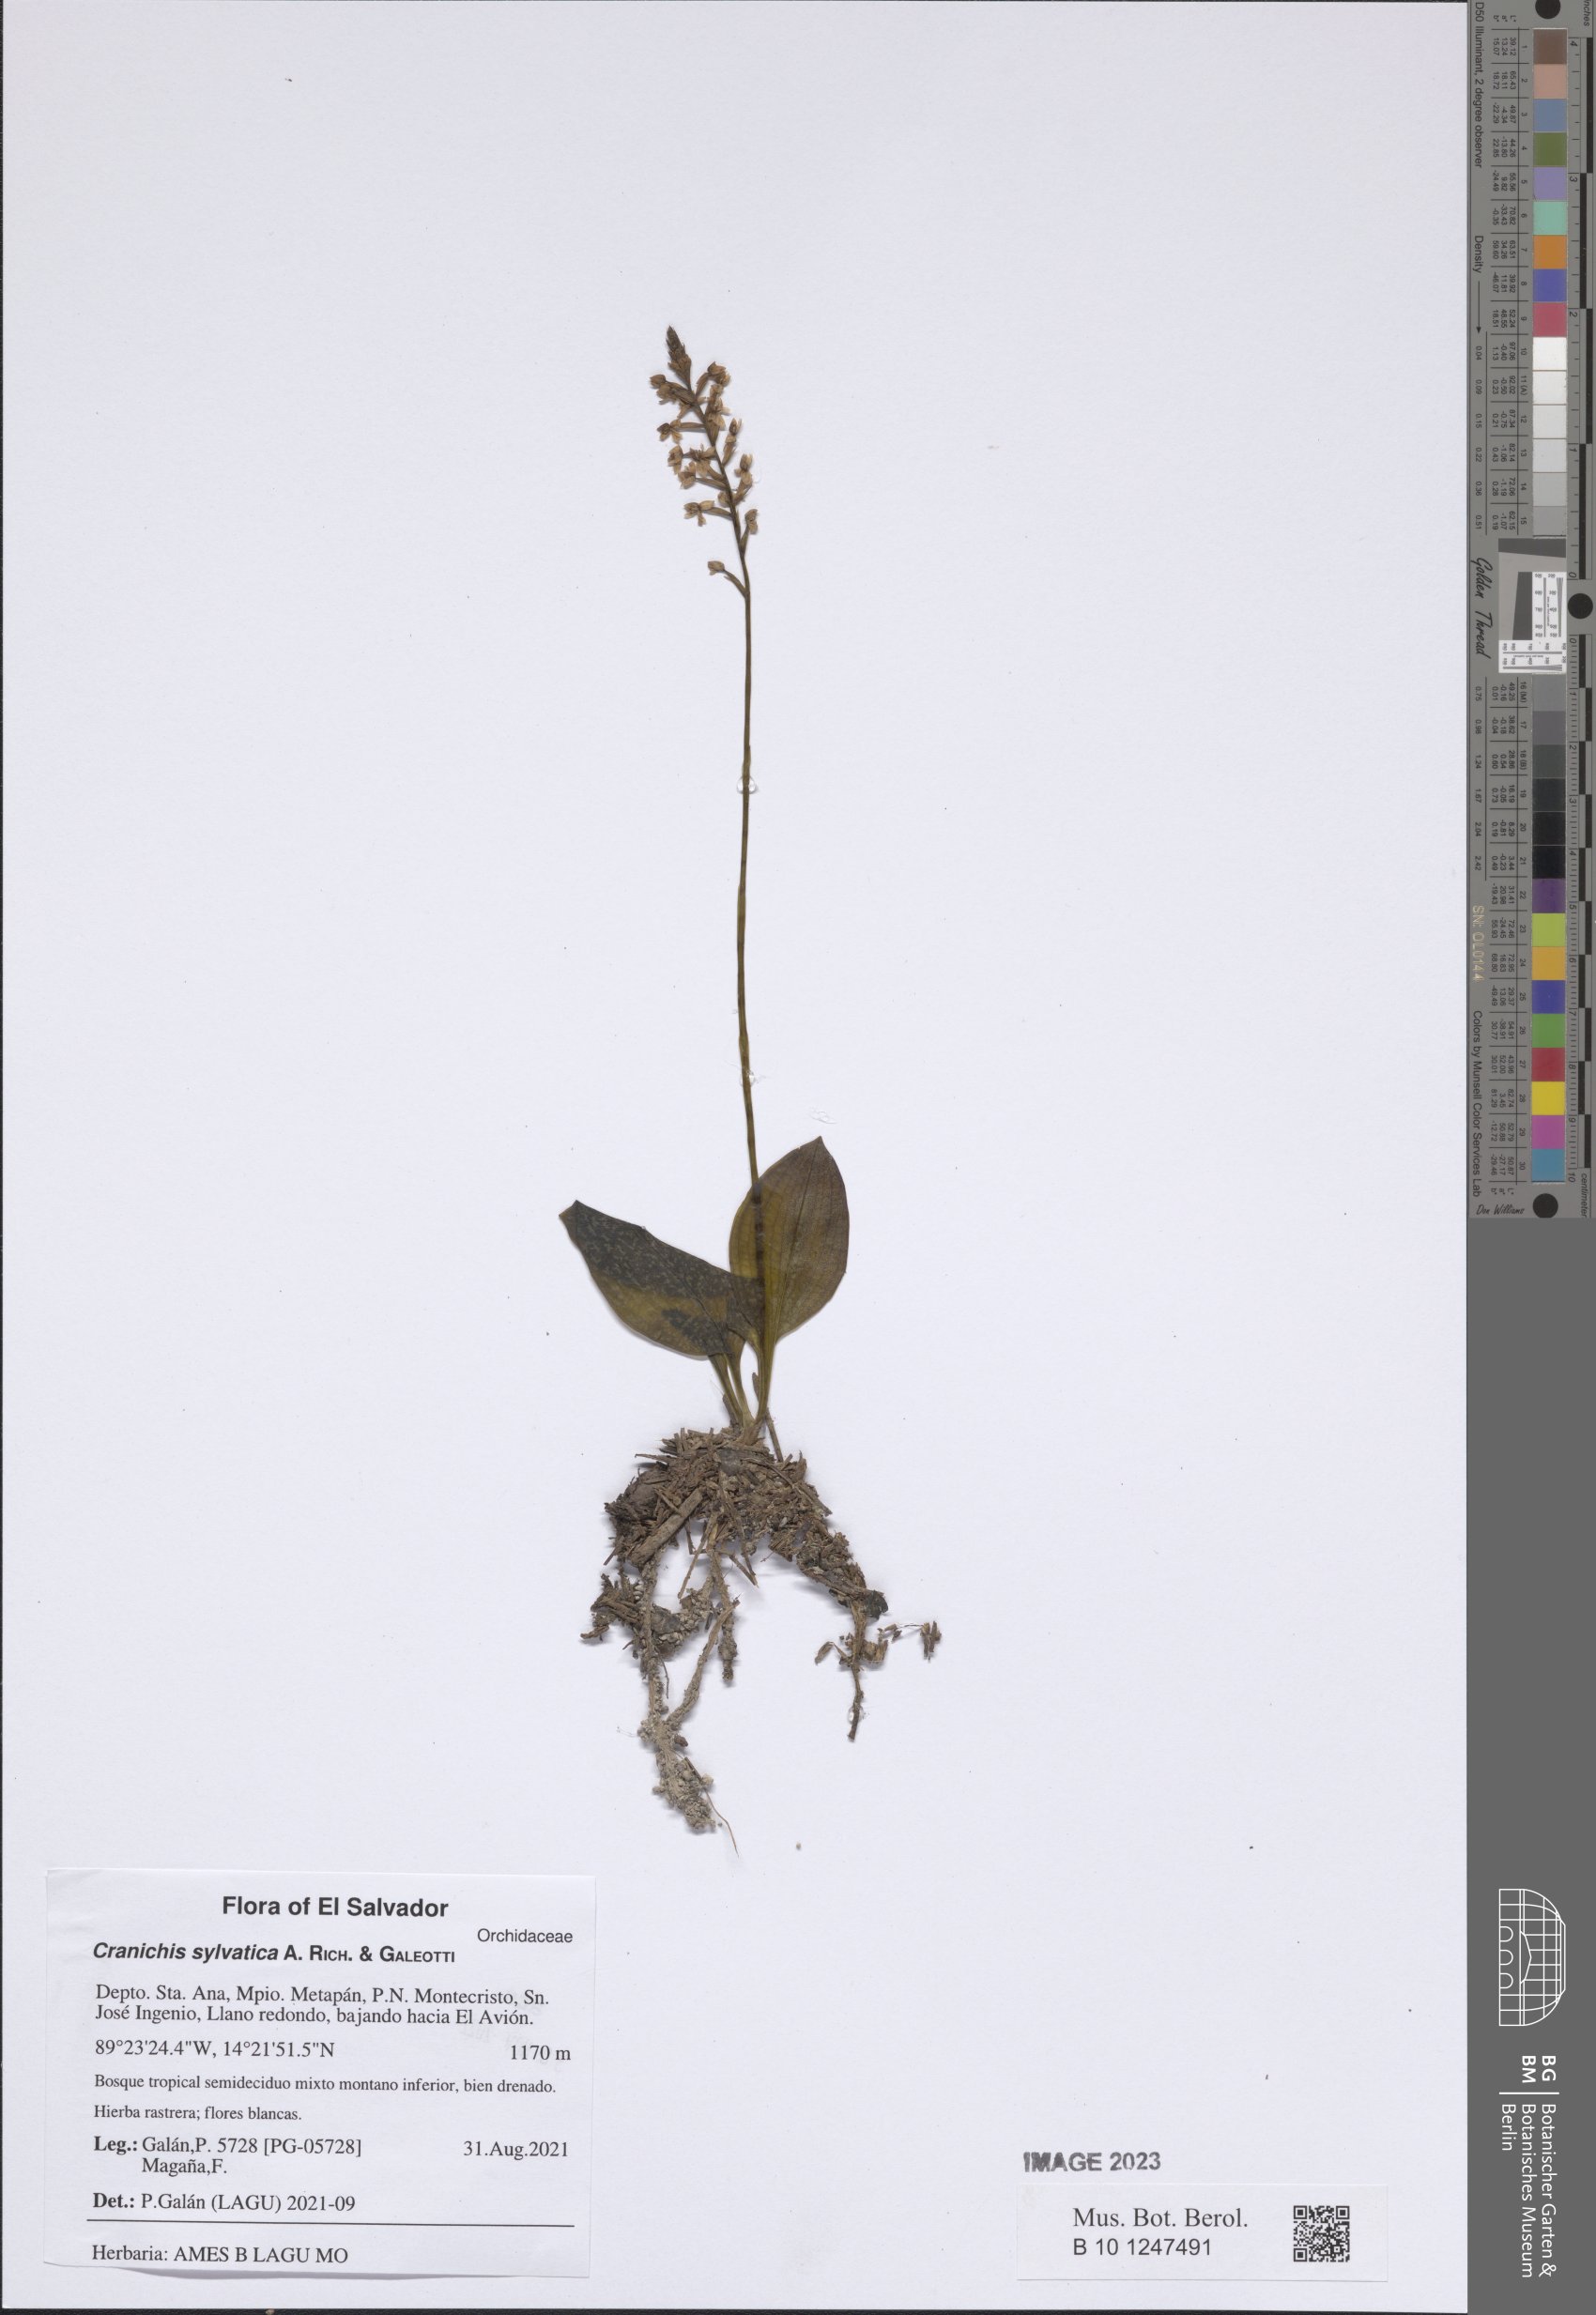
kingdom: Plantae
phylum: Tracheophyta
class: Liliopsida
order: Asparagales
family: Orchidaceae
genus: Cranichis
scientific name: Cranichis sylvatica
